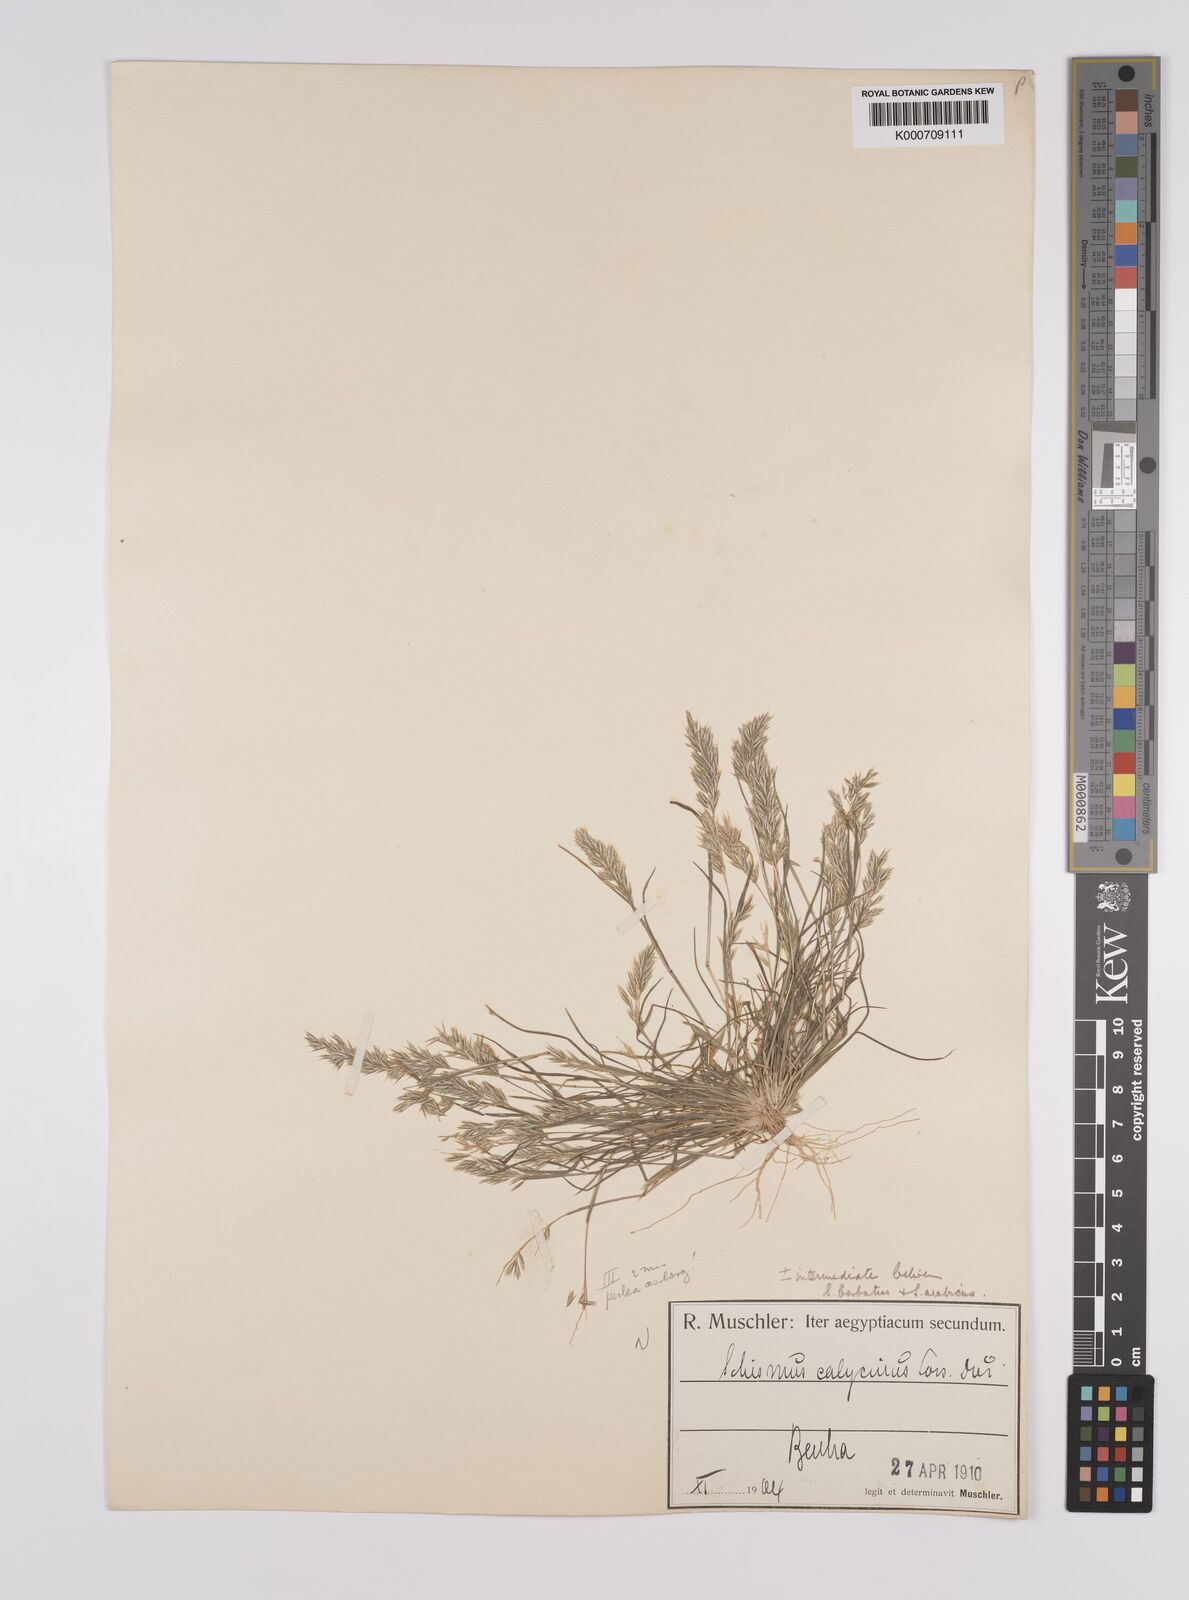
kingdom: Plantae
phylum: Tracheophyta
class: Liliopsida
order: Poales
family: Poaceae
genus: Schismus
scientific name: Schismus arabicus
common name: Arabian schismus
